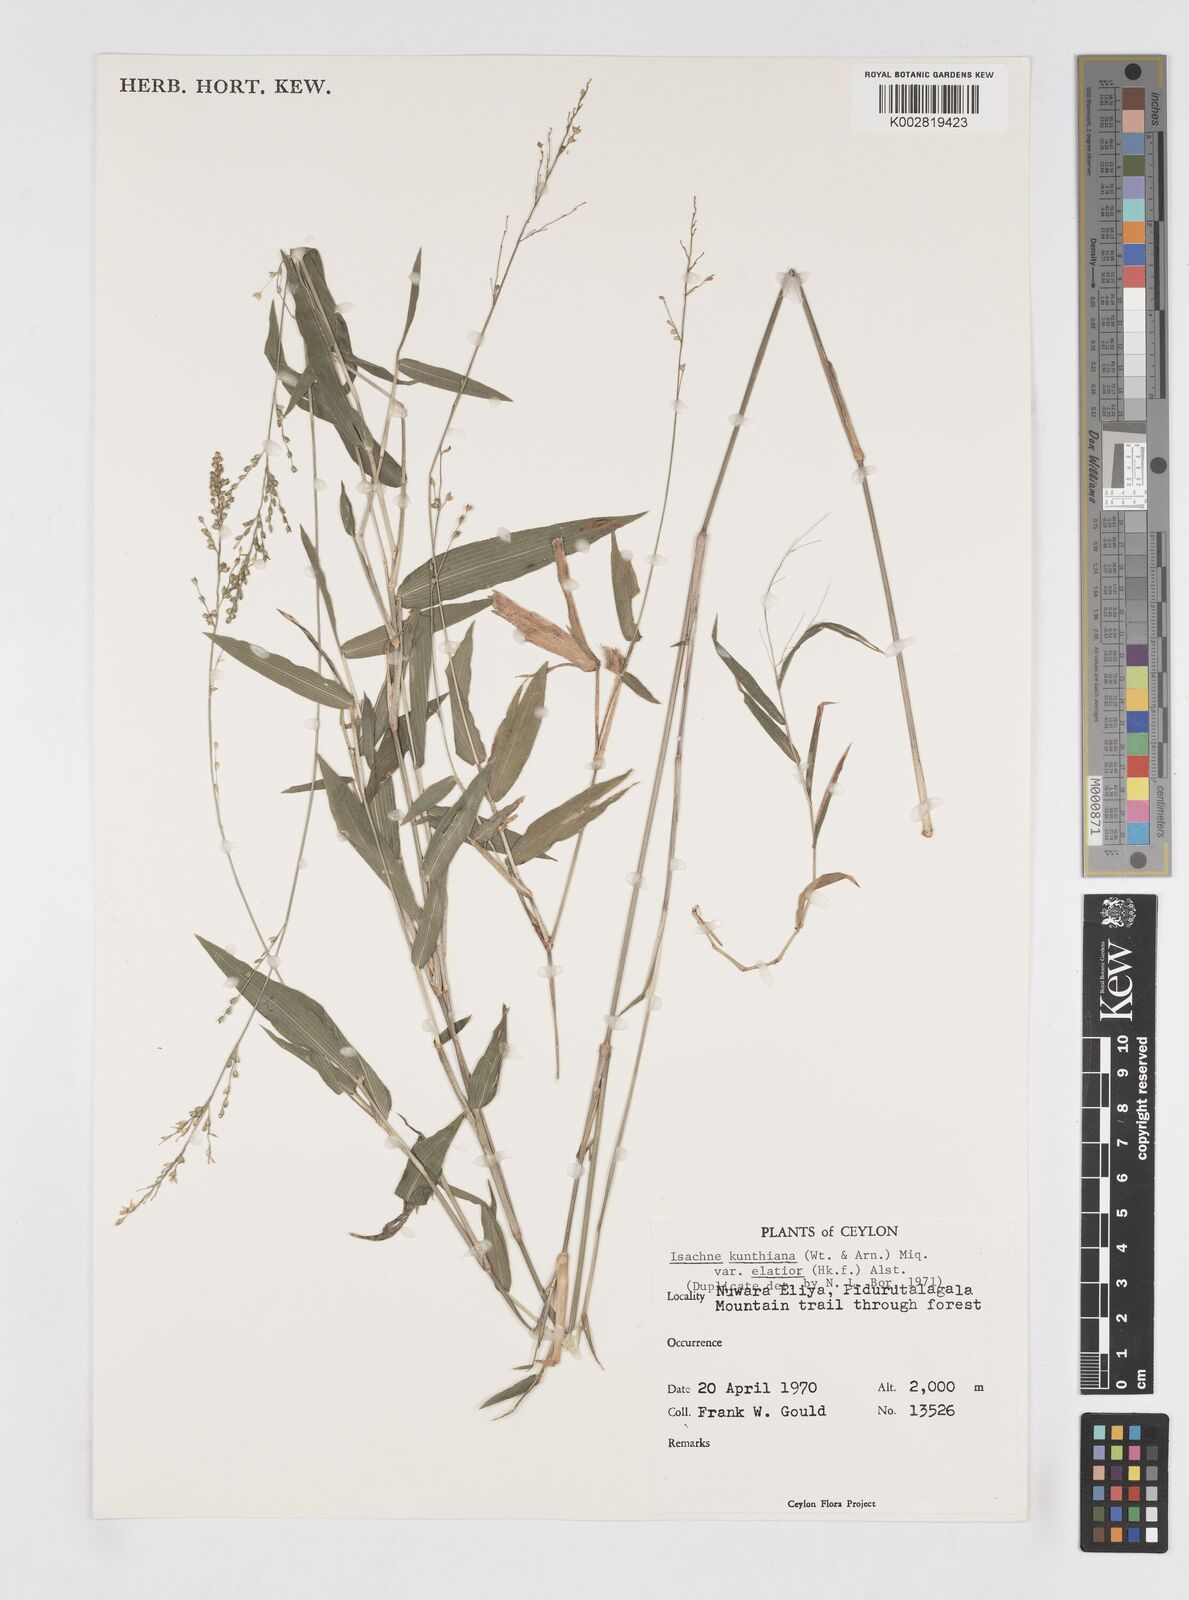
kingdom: Plantae
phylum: Tracheophyta
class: Liliopsida
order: Poales
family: Poaceae
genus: Isachne
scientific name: Isachne kunthiana
